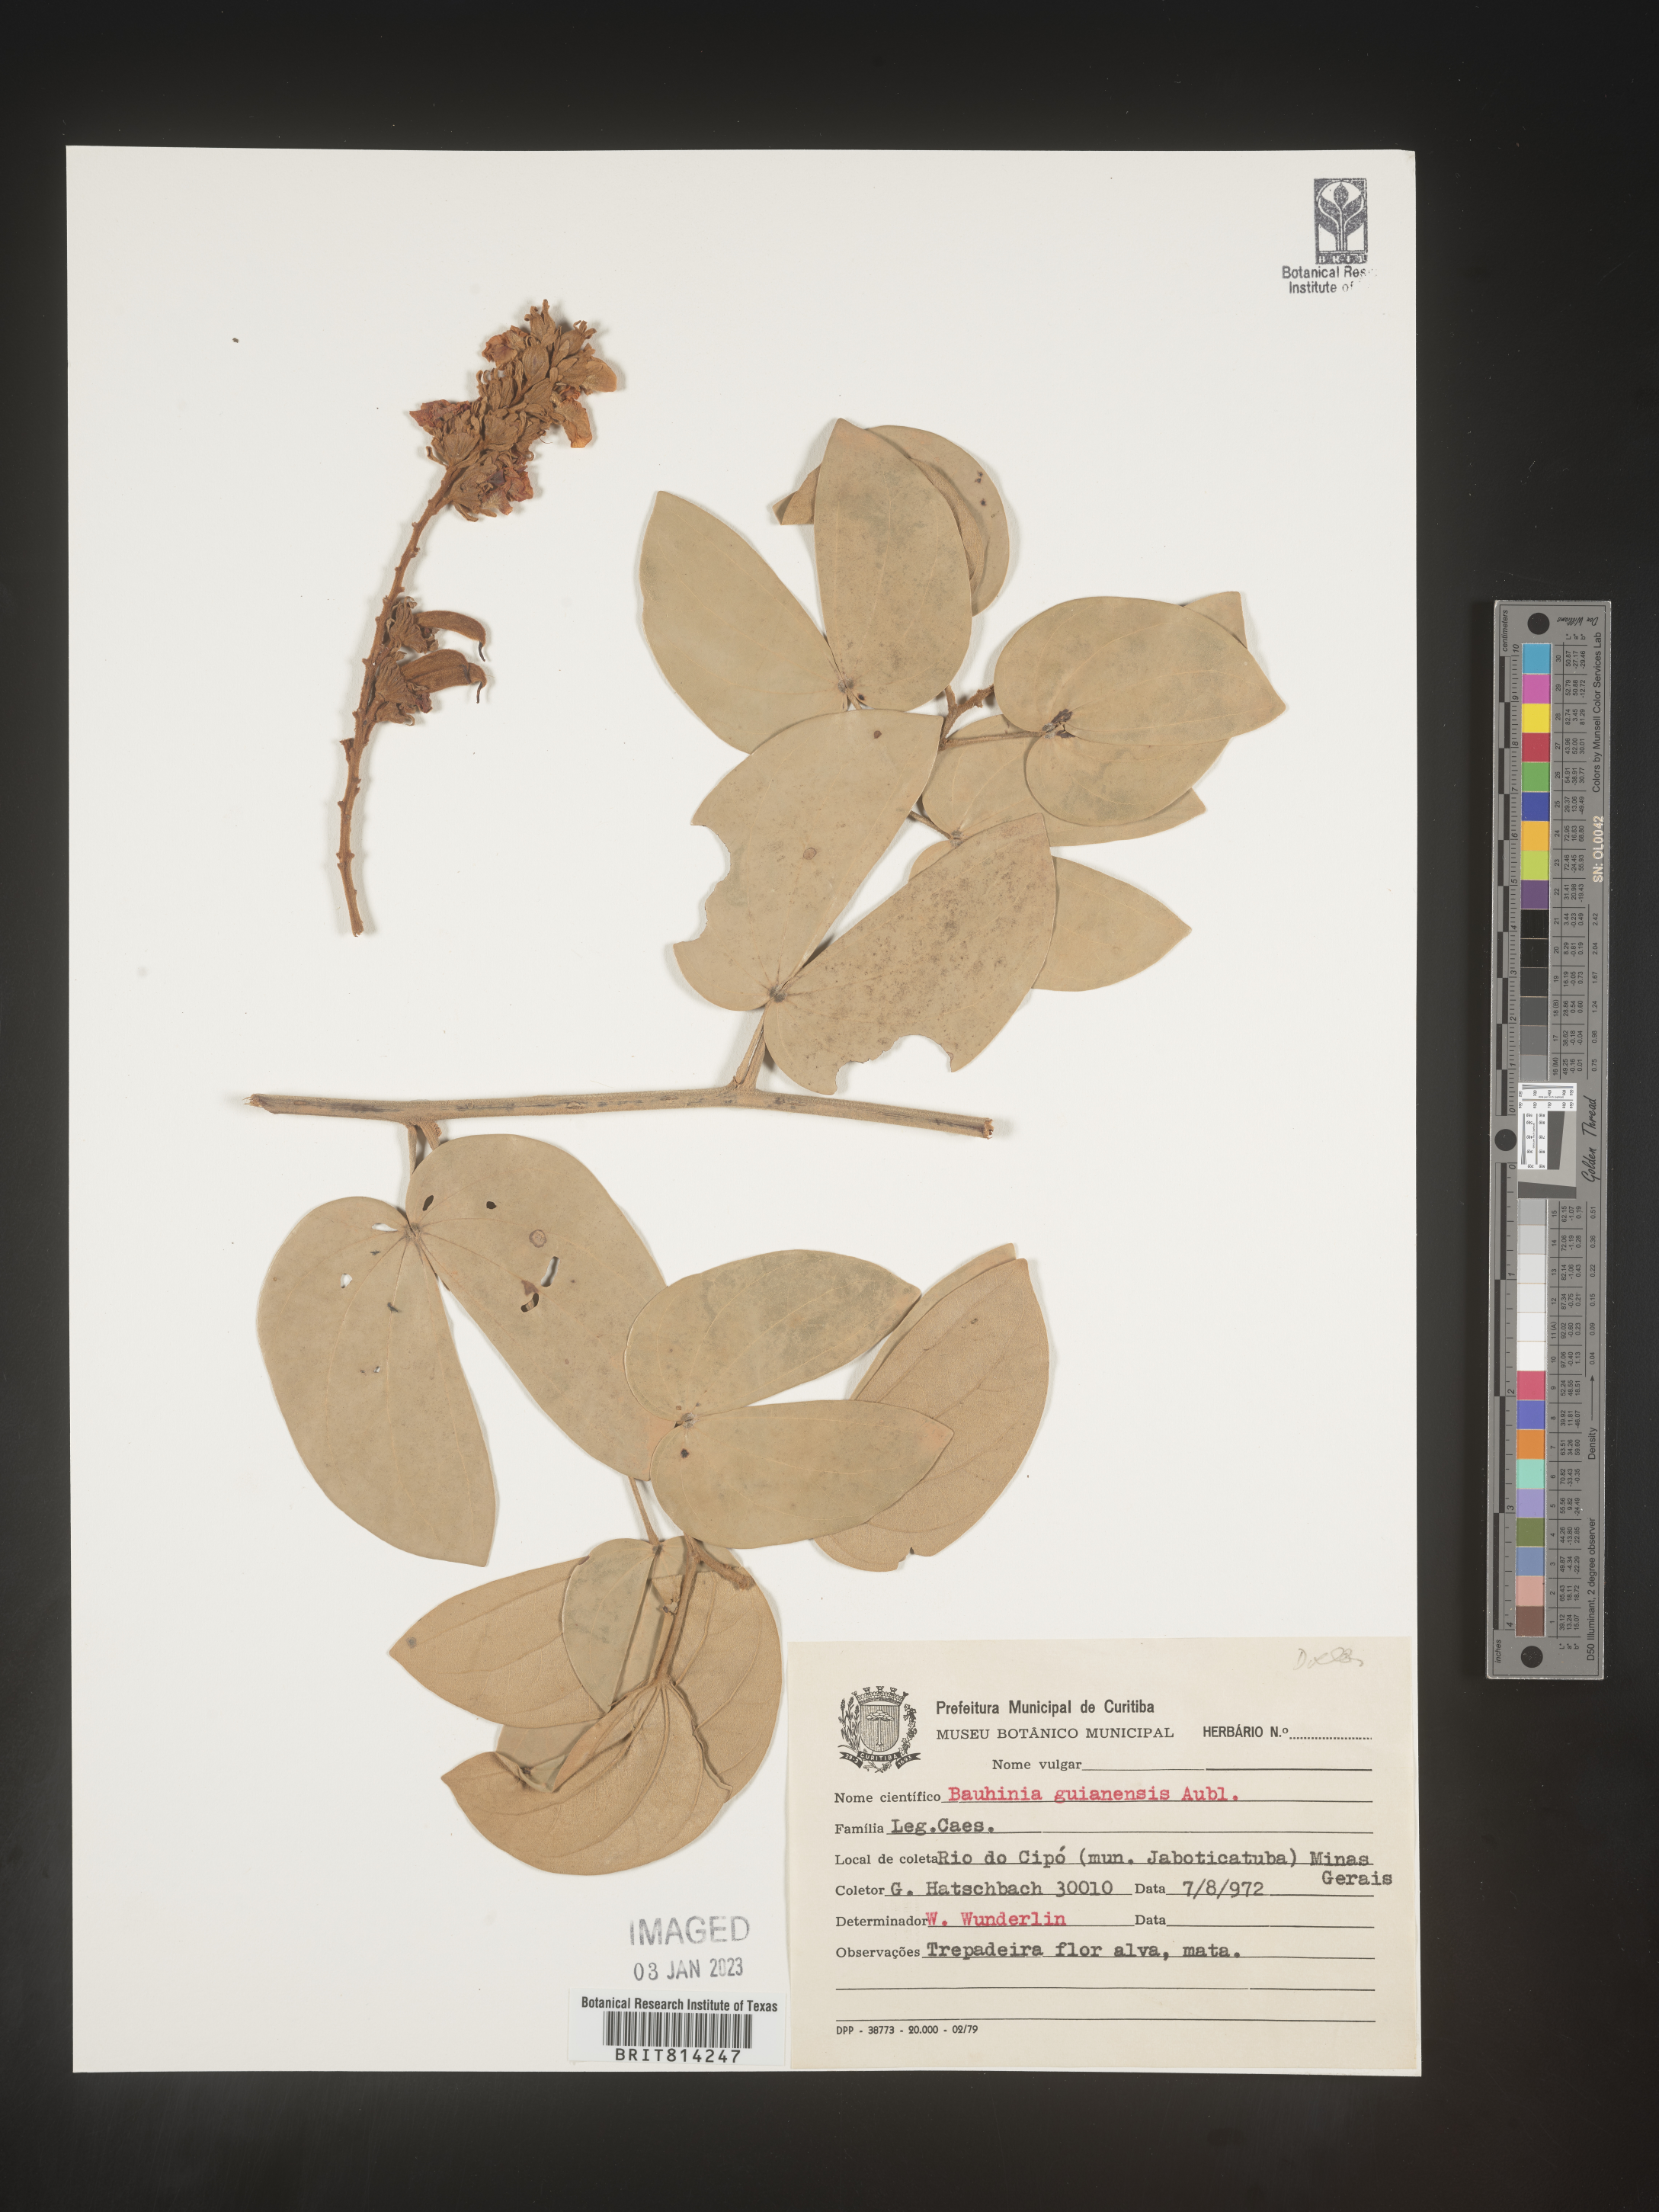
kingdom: Plantae
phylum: Tracheophyta
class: Magnoliopsida
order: Fabales
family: Fabaceae
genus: Bauhinia
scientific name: Bauhinia
